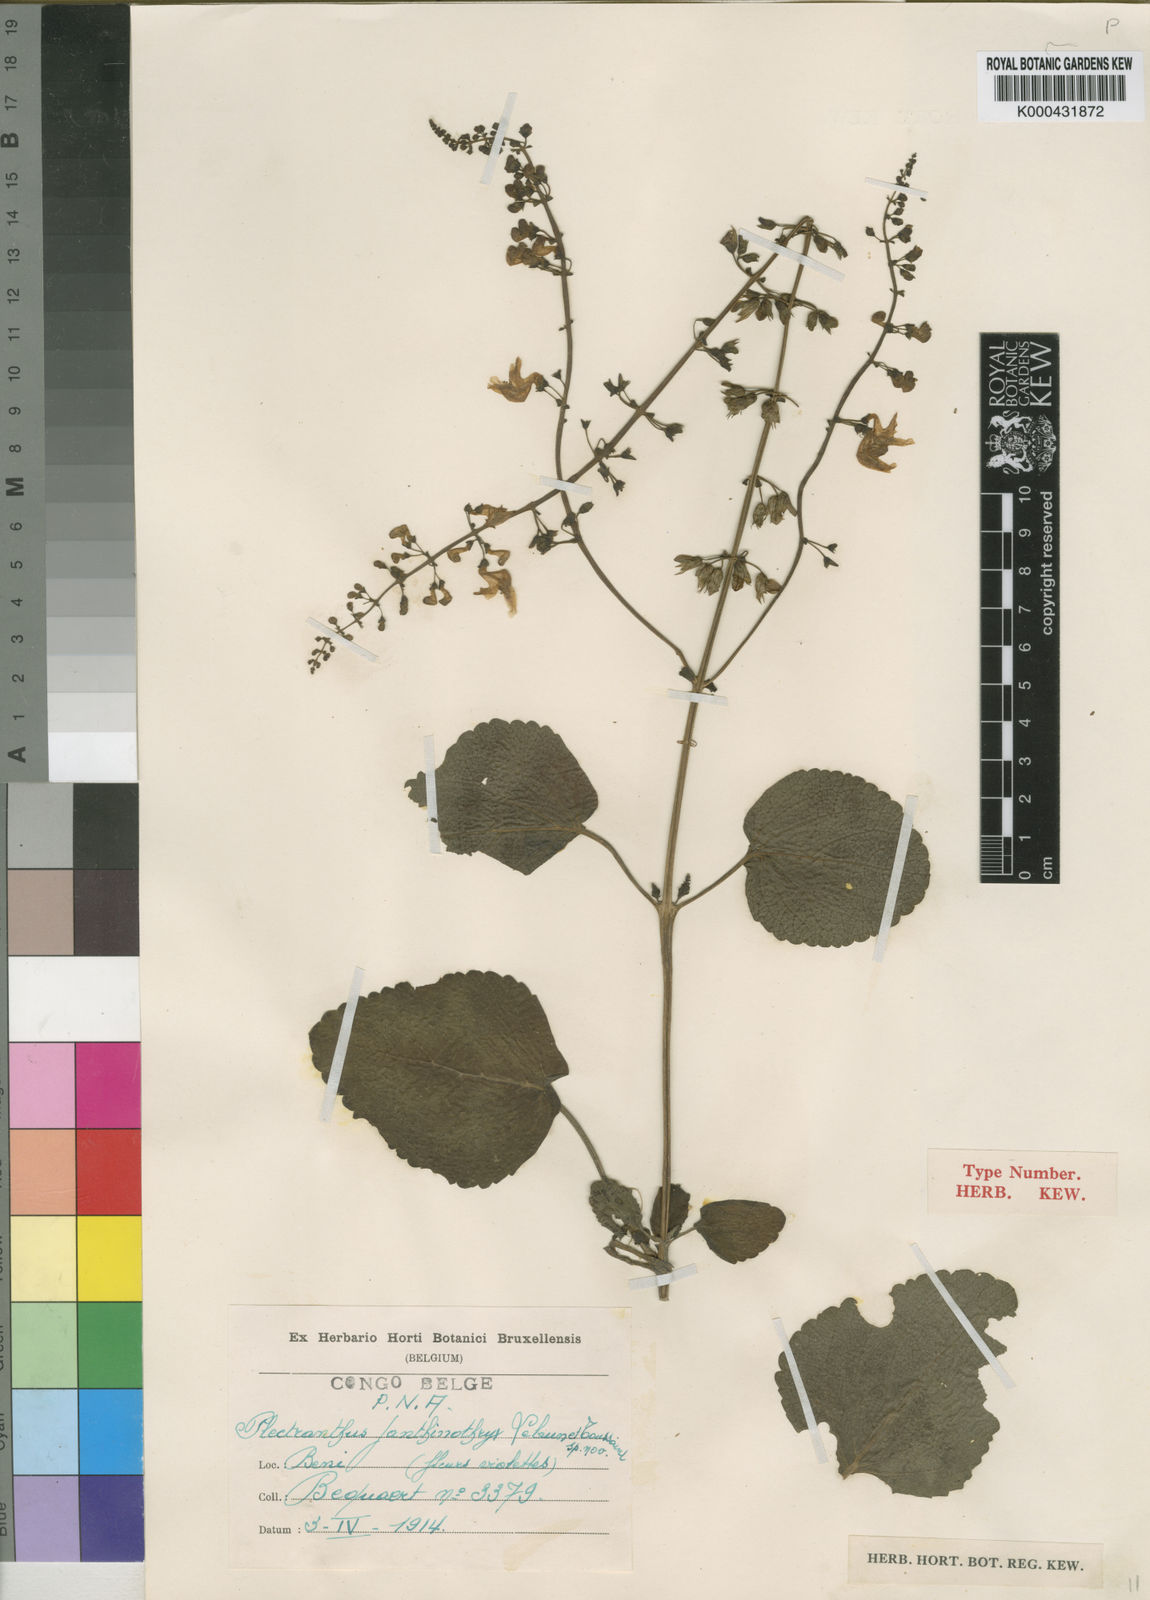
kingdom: Plantae
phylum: Tracheophyta
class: Magnoliopsida
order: Lamiales
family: Lamiaceae
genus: Equilabium
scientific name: Equilabium janthinothryx
